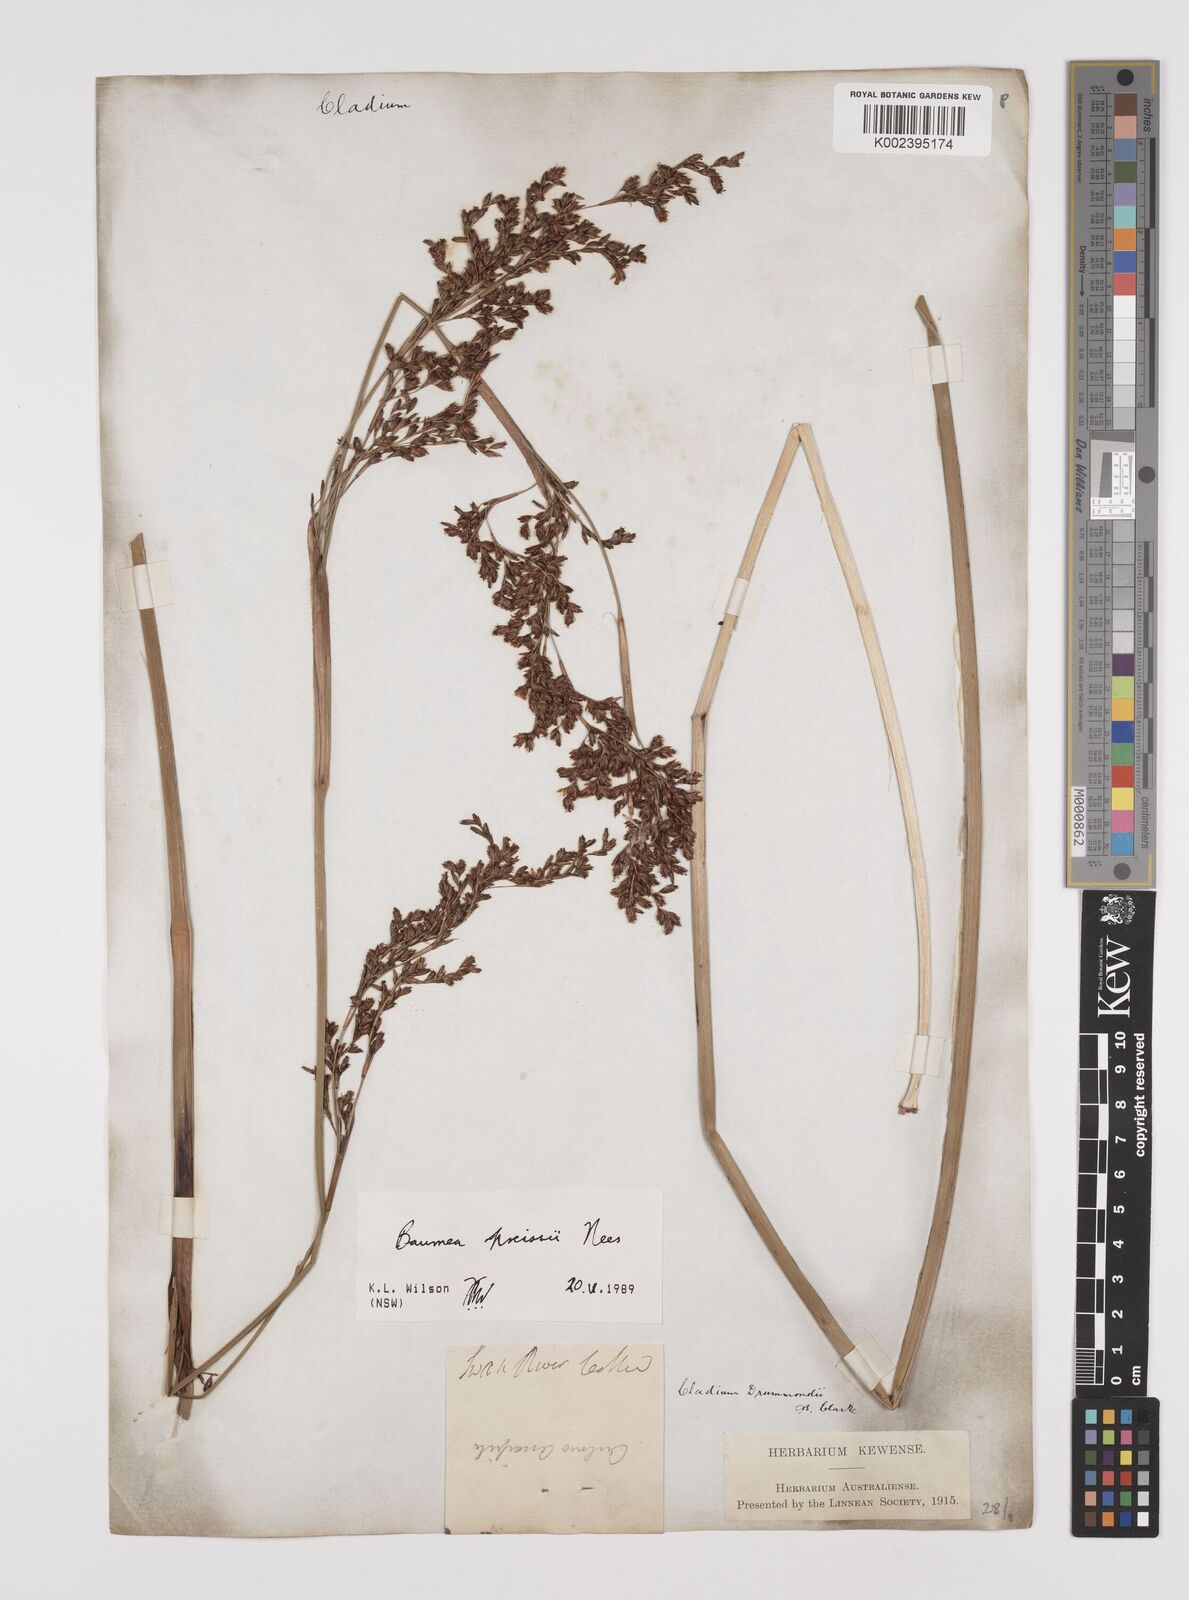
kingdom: Plantae
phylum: Tracheophyta
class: Liliopsida
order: Poales
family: Cyperaceae
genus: Machaerina
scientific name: Machaerina preissii
